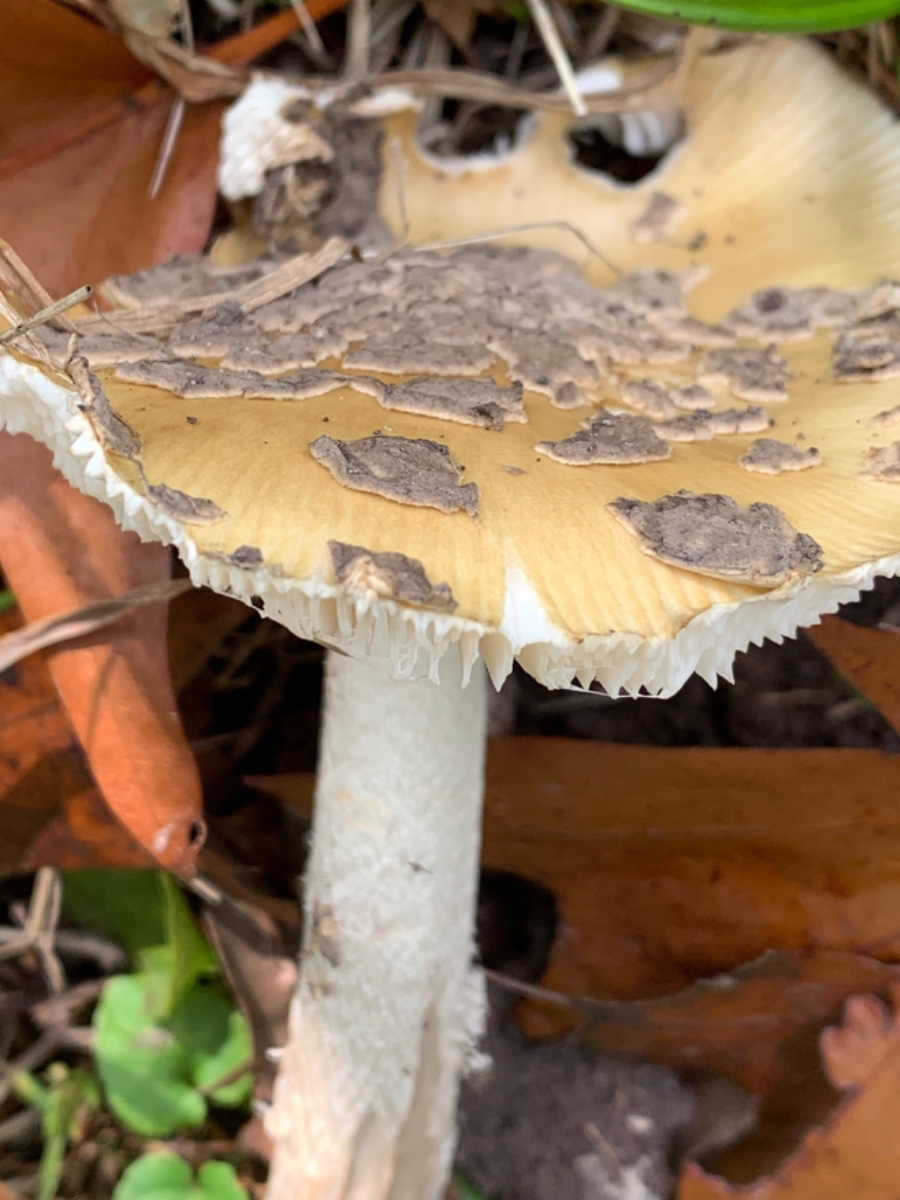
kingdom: Fungi
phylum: Basidiomycota
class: Agaricomycetes
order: Agaricales
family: Amanitaceae
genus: Amanita
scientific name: Amanita ceciliae
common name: stor kam-fluesvamp
